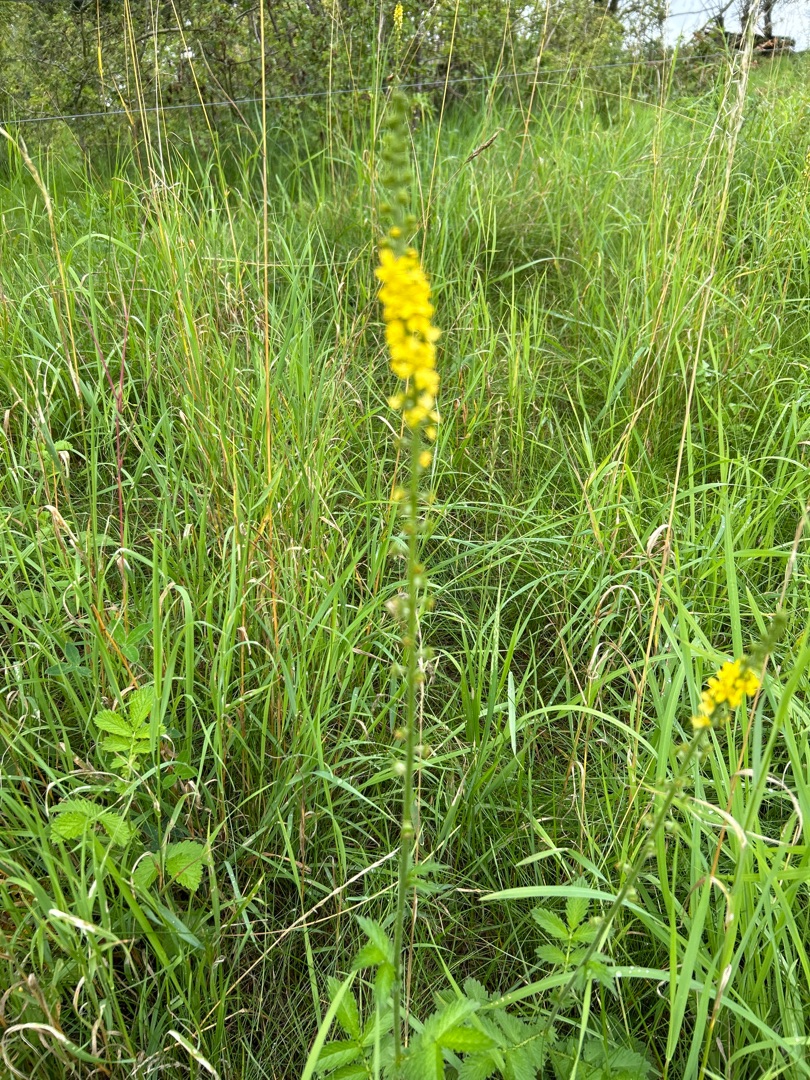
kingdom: Plantae
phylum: Tracheophyta
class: Magnoliopsida
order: Rosales
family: Rosaceae
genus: Agrimonia
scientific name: Agrimonia
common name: Agermåneslægten
